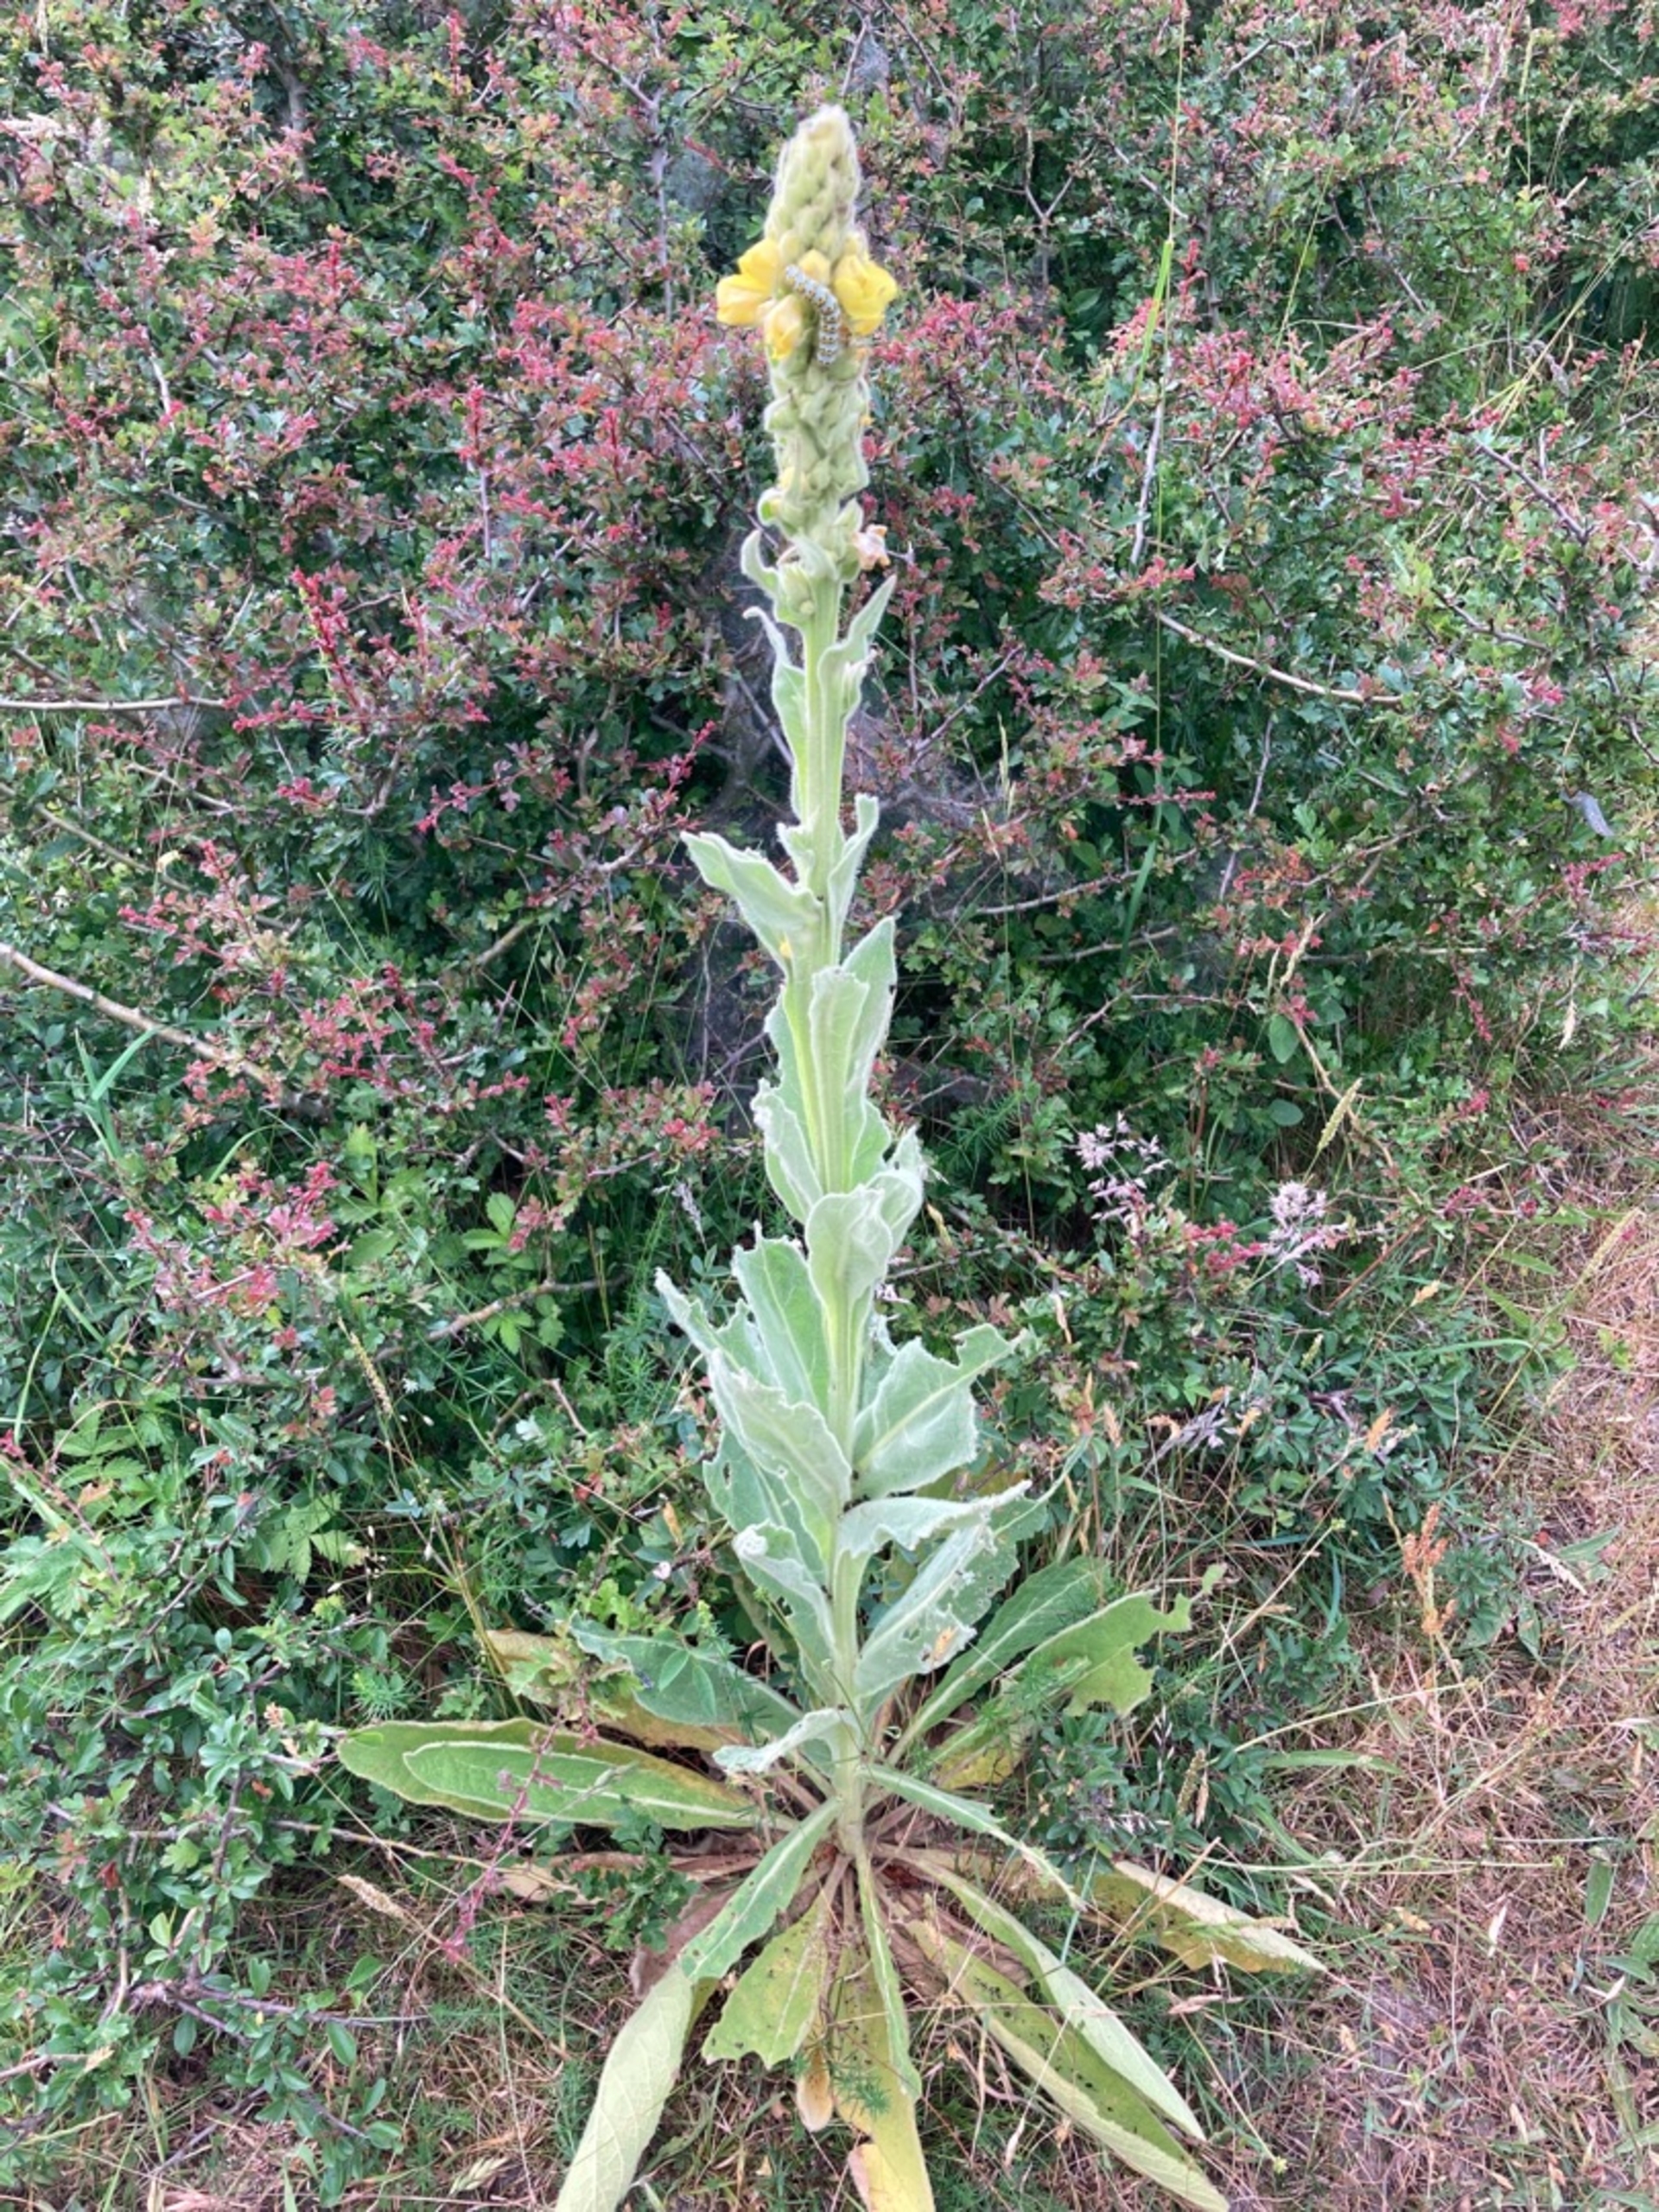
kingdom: Plantae
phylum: Tracheophyta
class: Magnoliopsida
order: Lamiales
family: Scrophulariaceae
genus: Verbascum
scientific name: Verbascum thapsus
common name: Filtbladet kongelys
